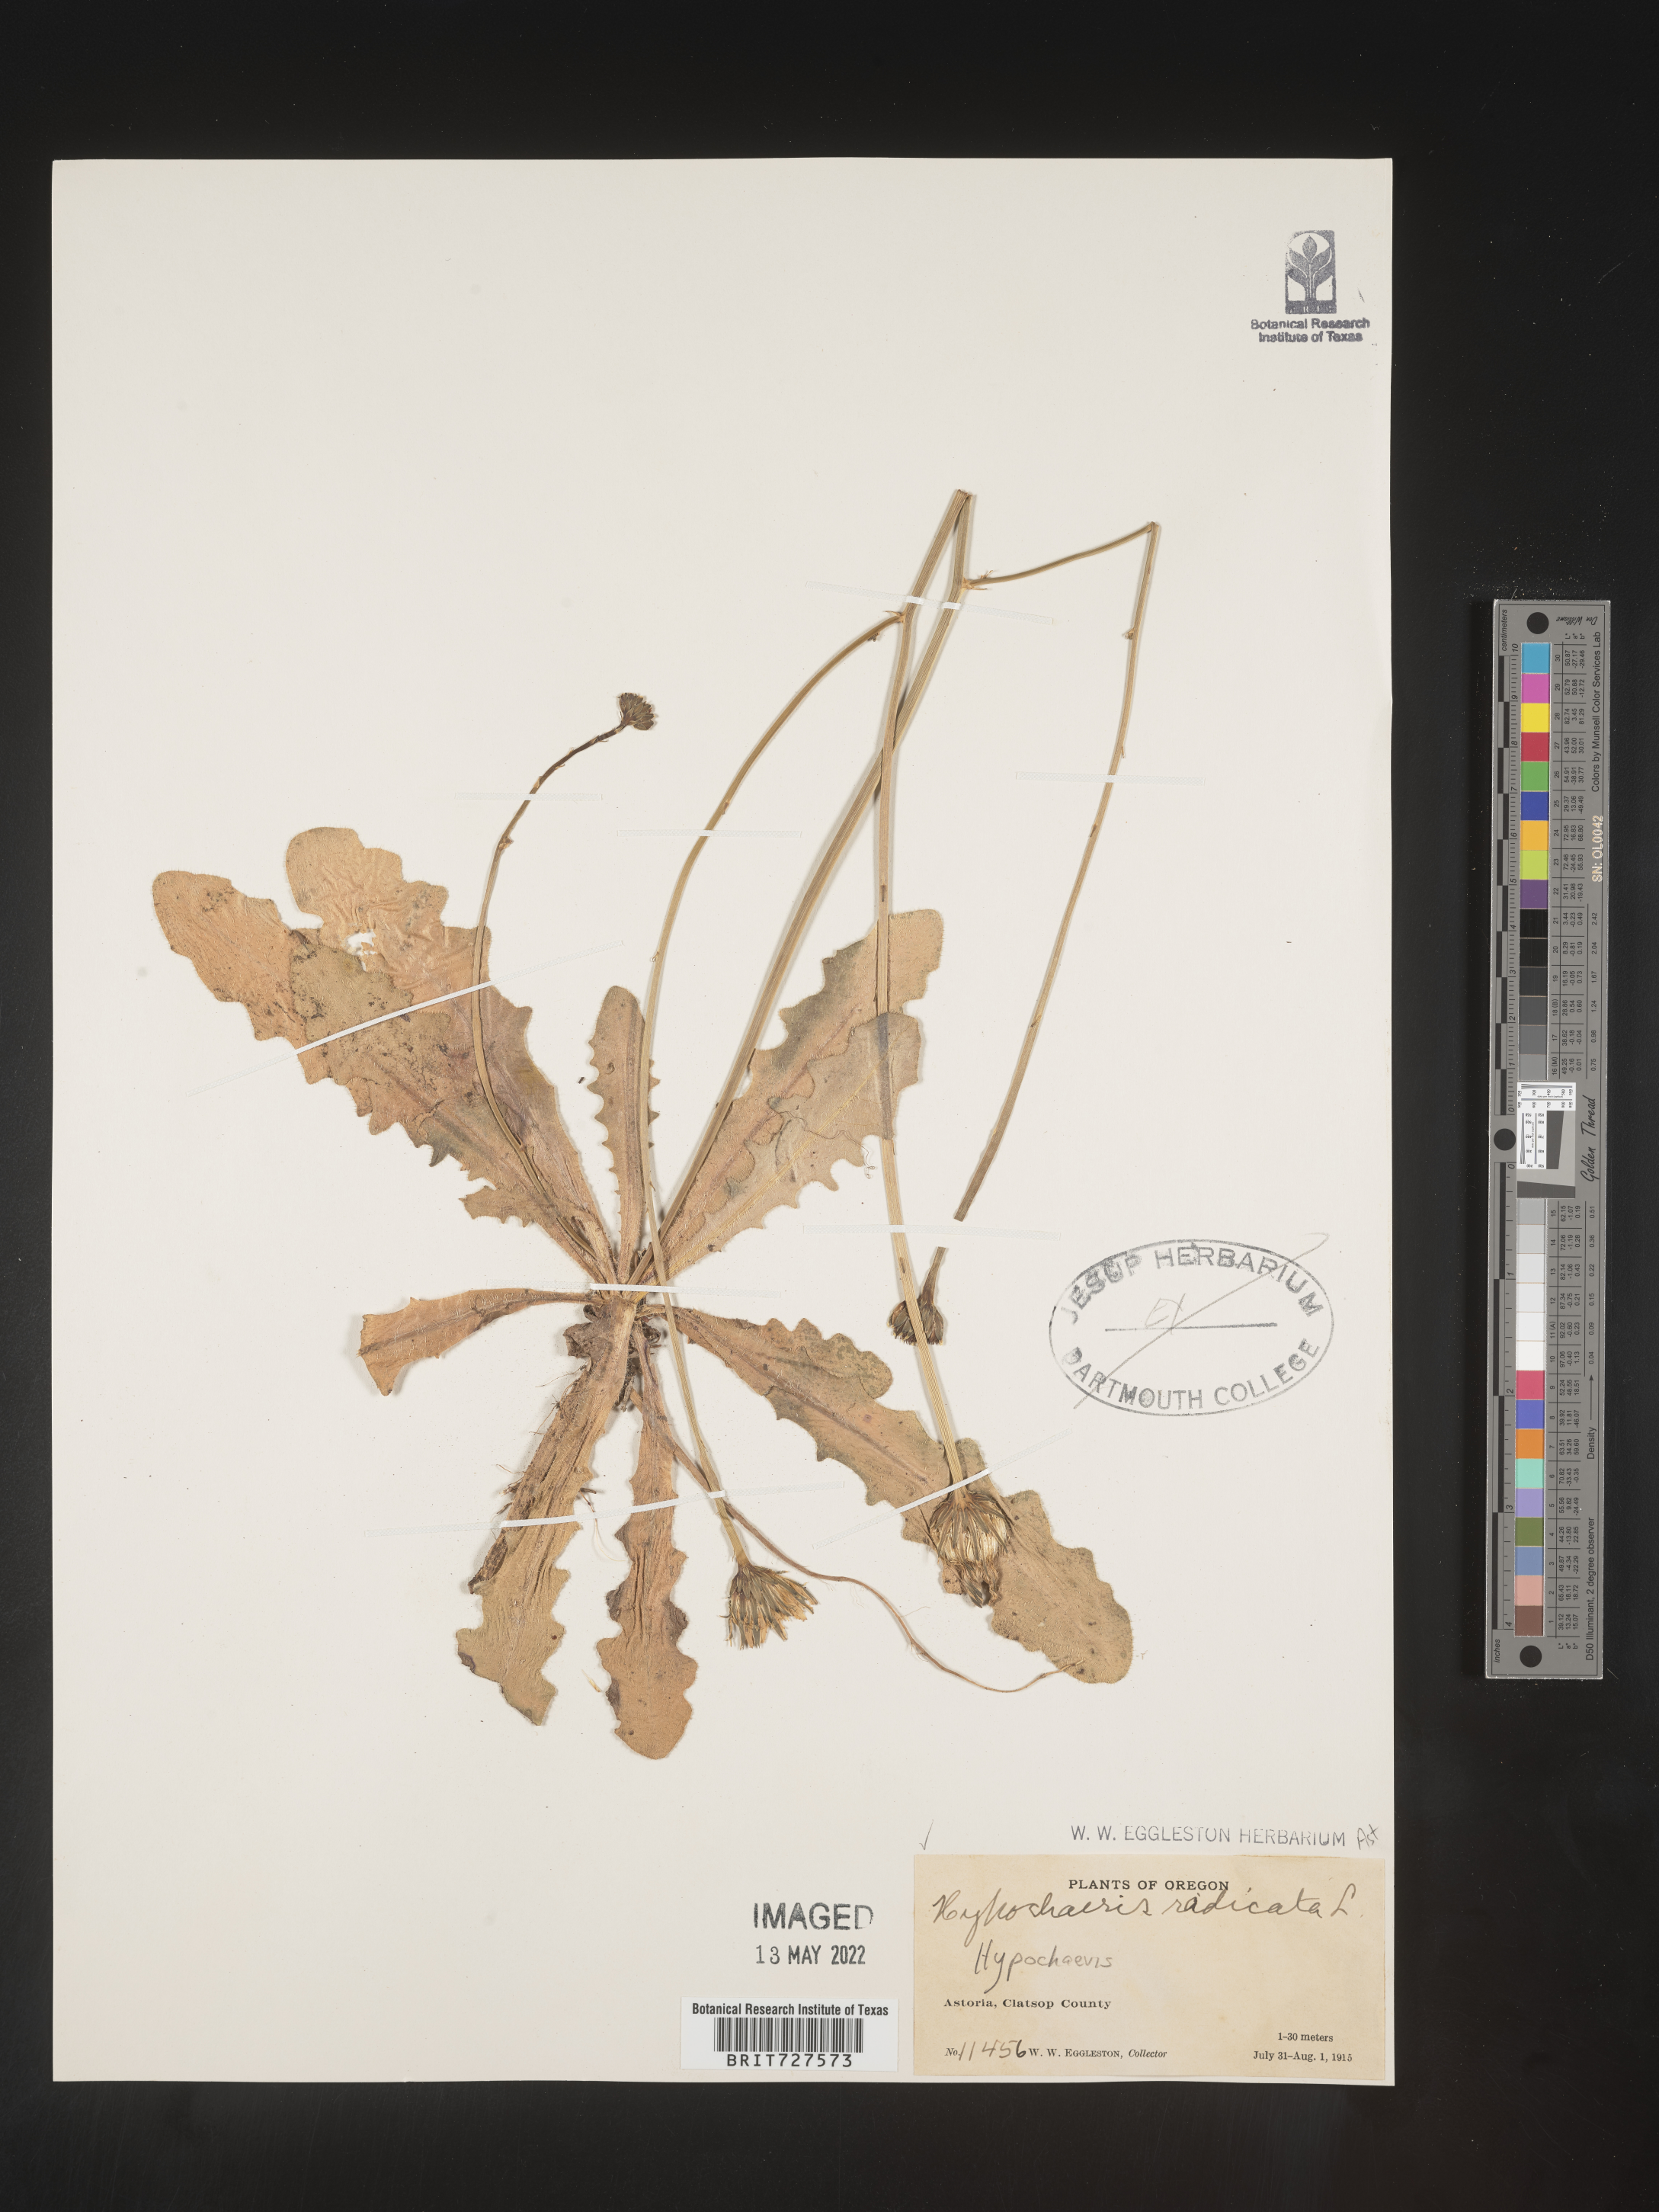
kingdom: Plantae
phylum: Tracheophyta
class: Magnoliopsida
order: Asterales
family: Asteraceae
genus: Hypochaeris
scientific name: Hypochaeris radicata
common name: Flatweed
